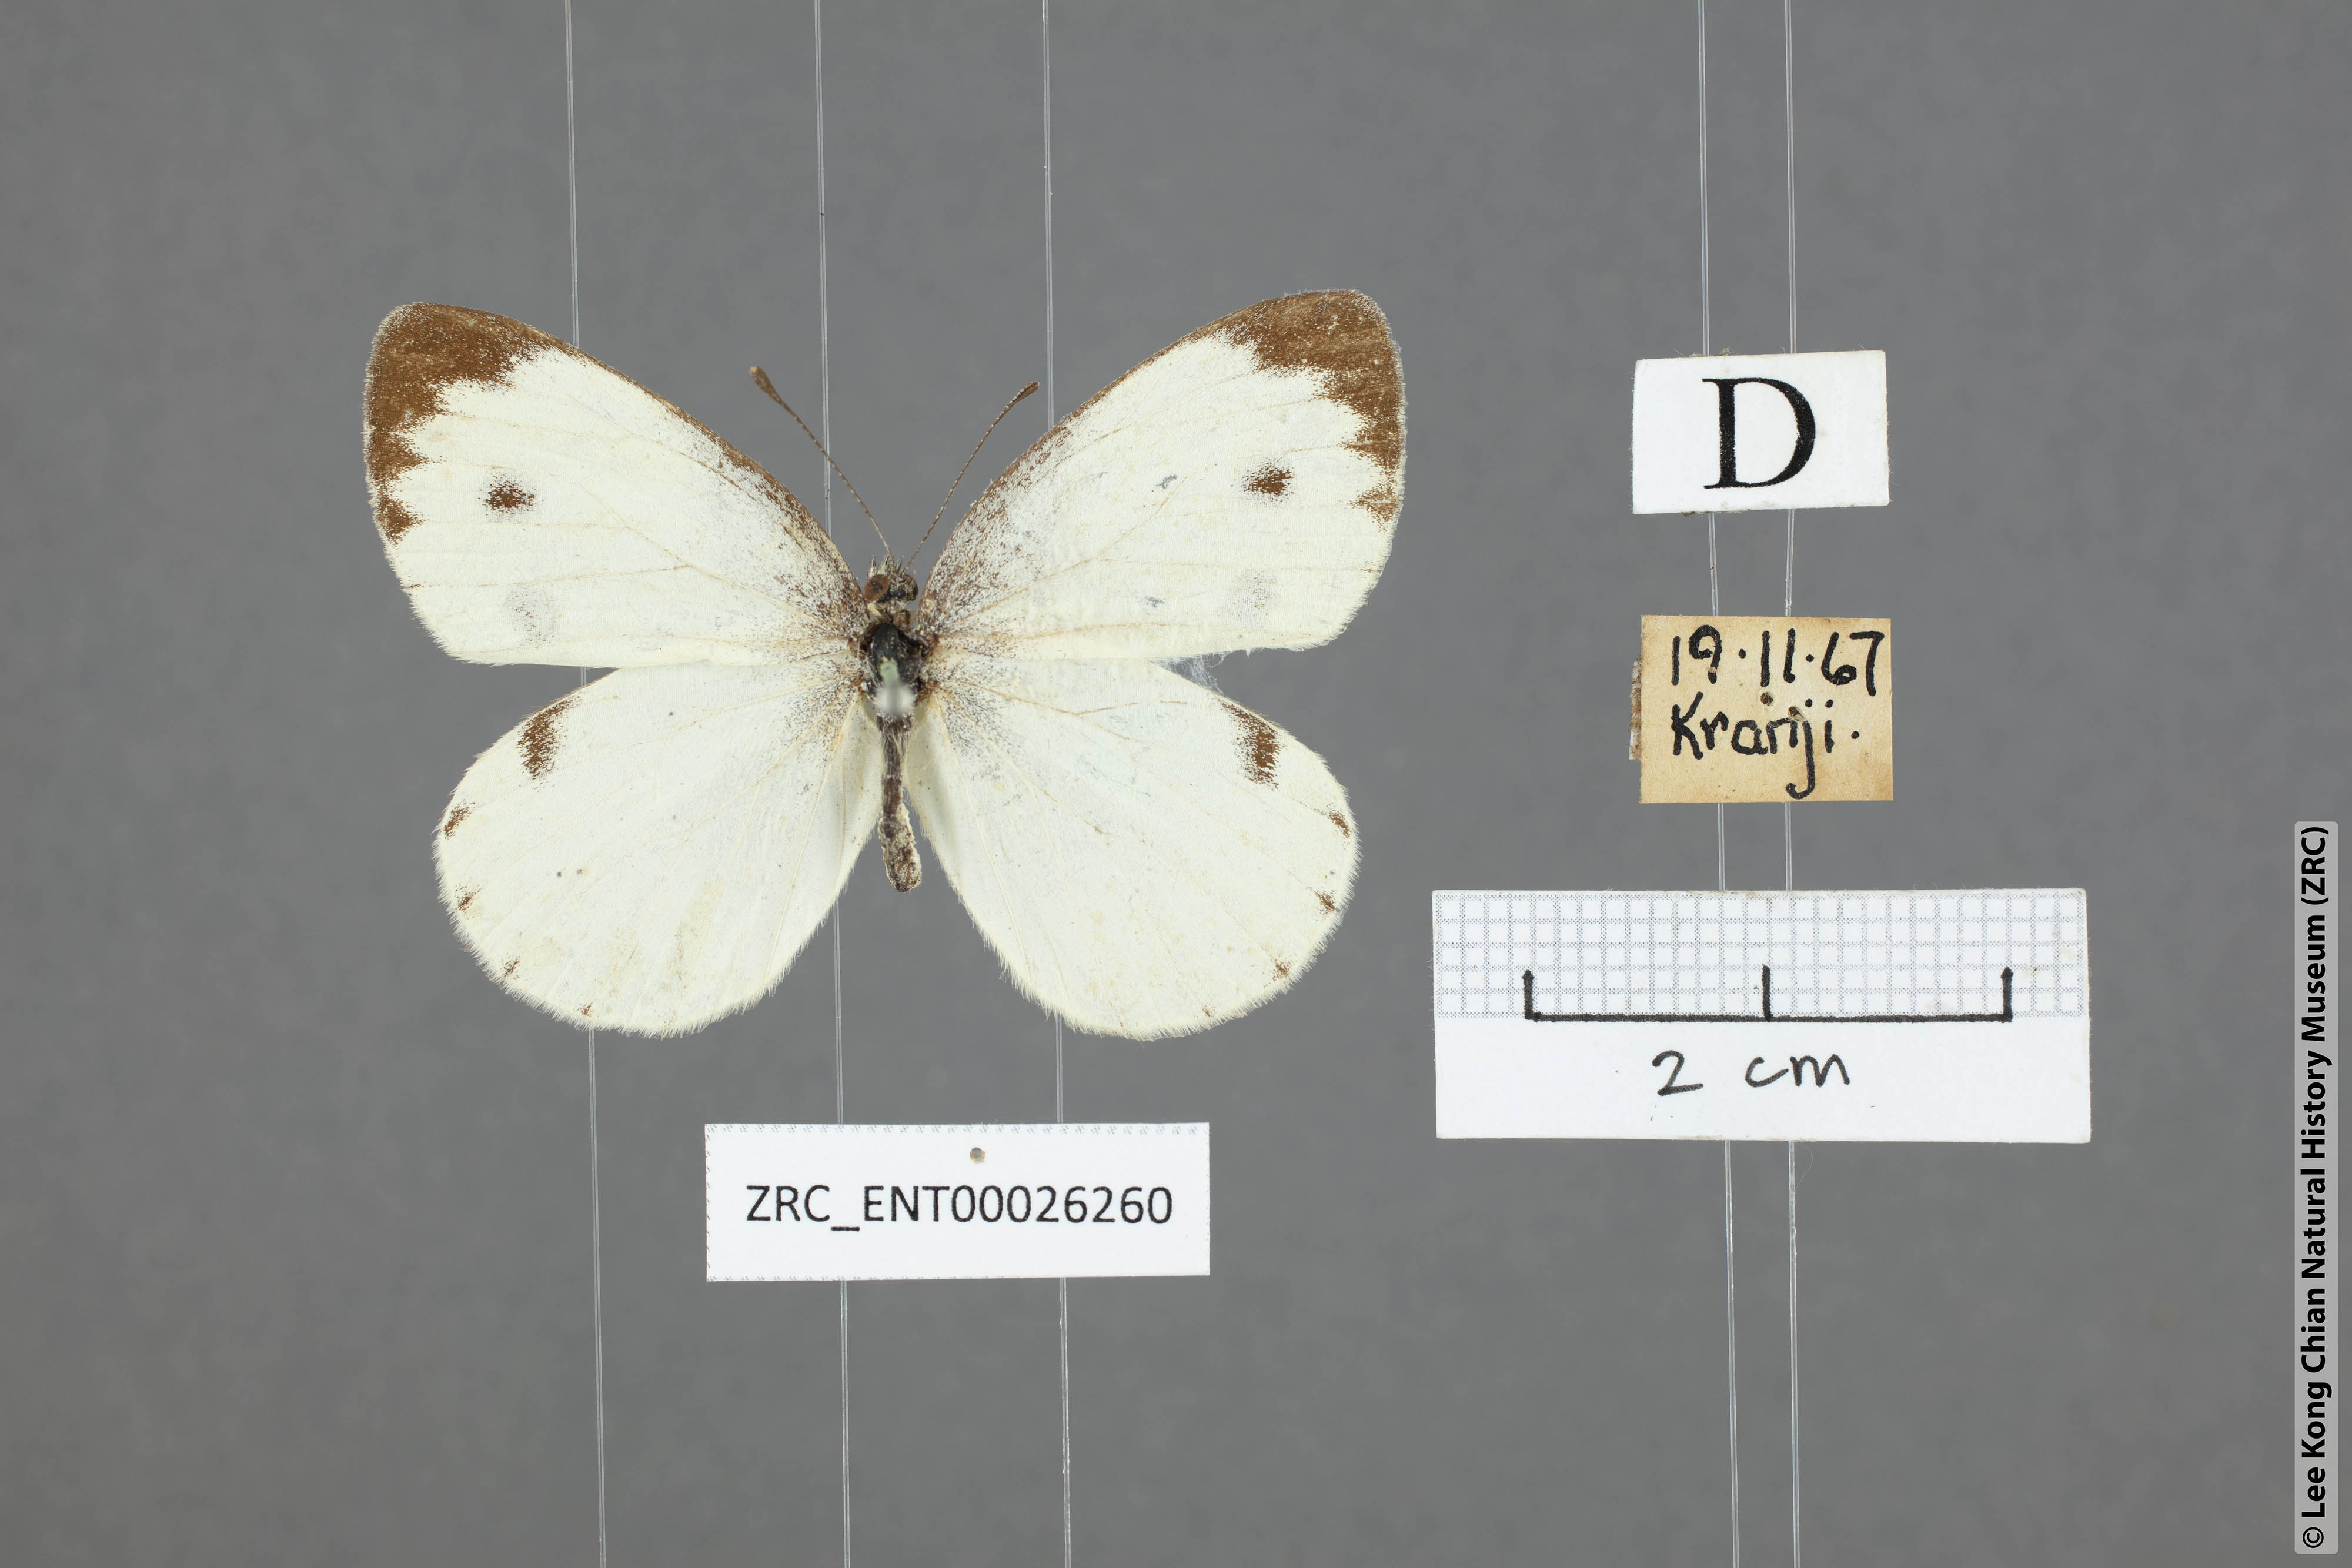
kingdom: Animalia
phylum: Arthropoda
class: Insecta
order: Lepidoptera
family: Pieridae
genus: Pieris
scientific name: Pieris canidia
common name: Indian cabbage white
